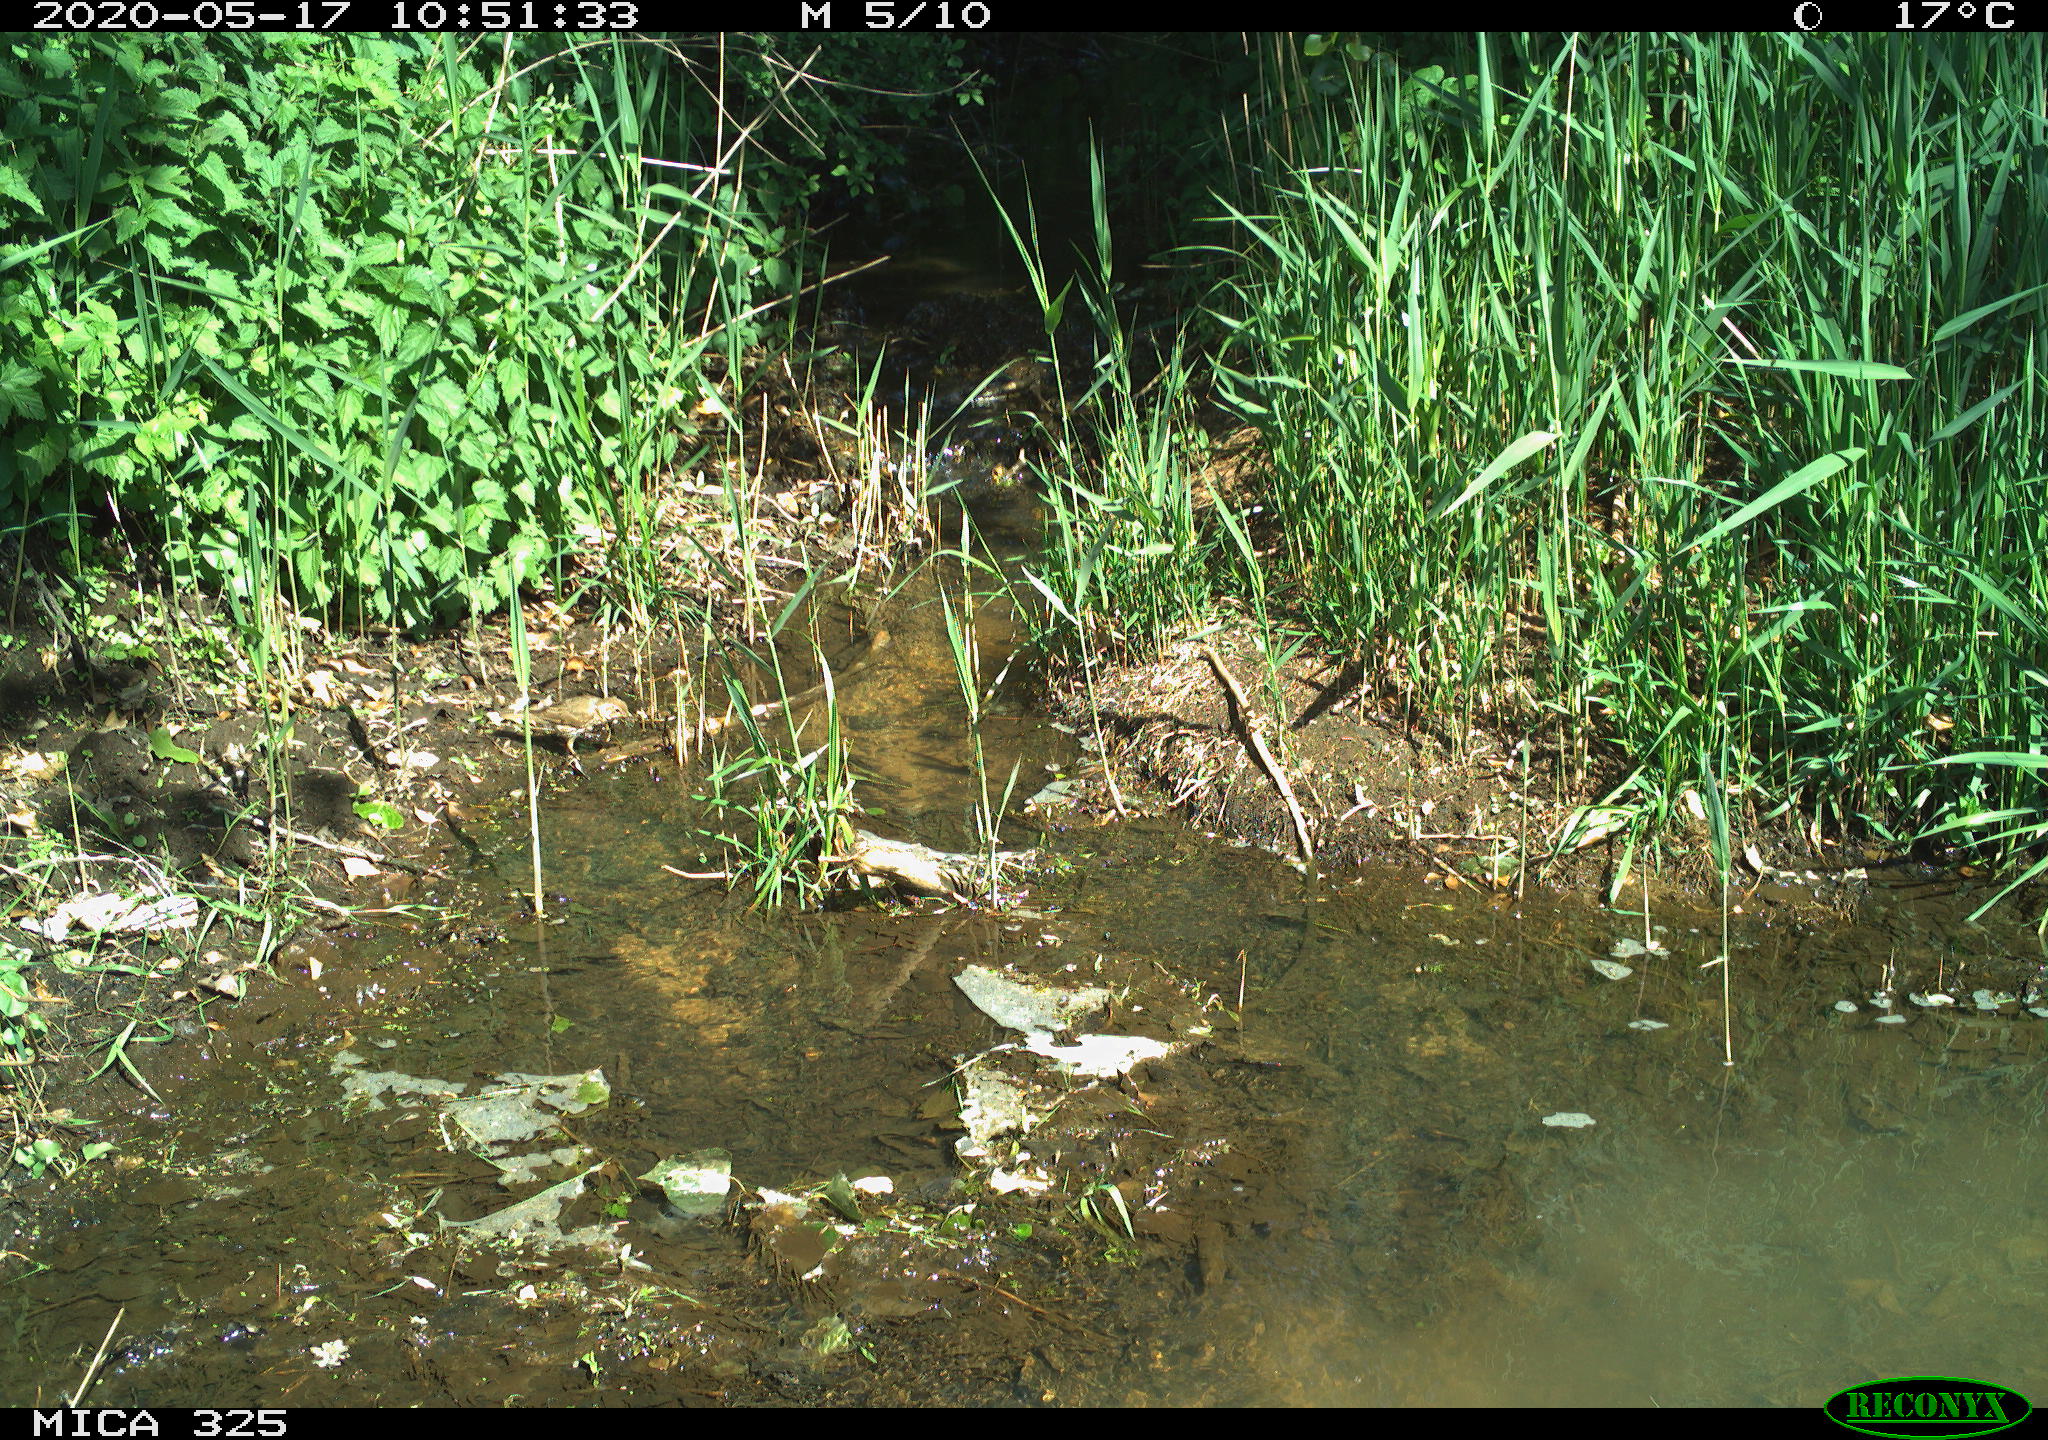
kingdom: Animalia
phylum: Chordata
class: Aves
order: Passeriformes
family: Turdidae
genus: Turdus
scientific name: Turdus philomelos
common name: Song thrush
